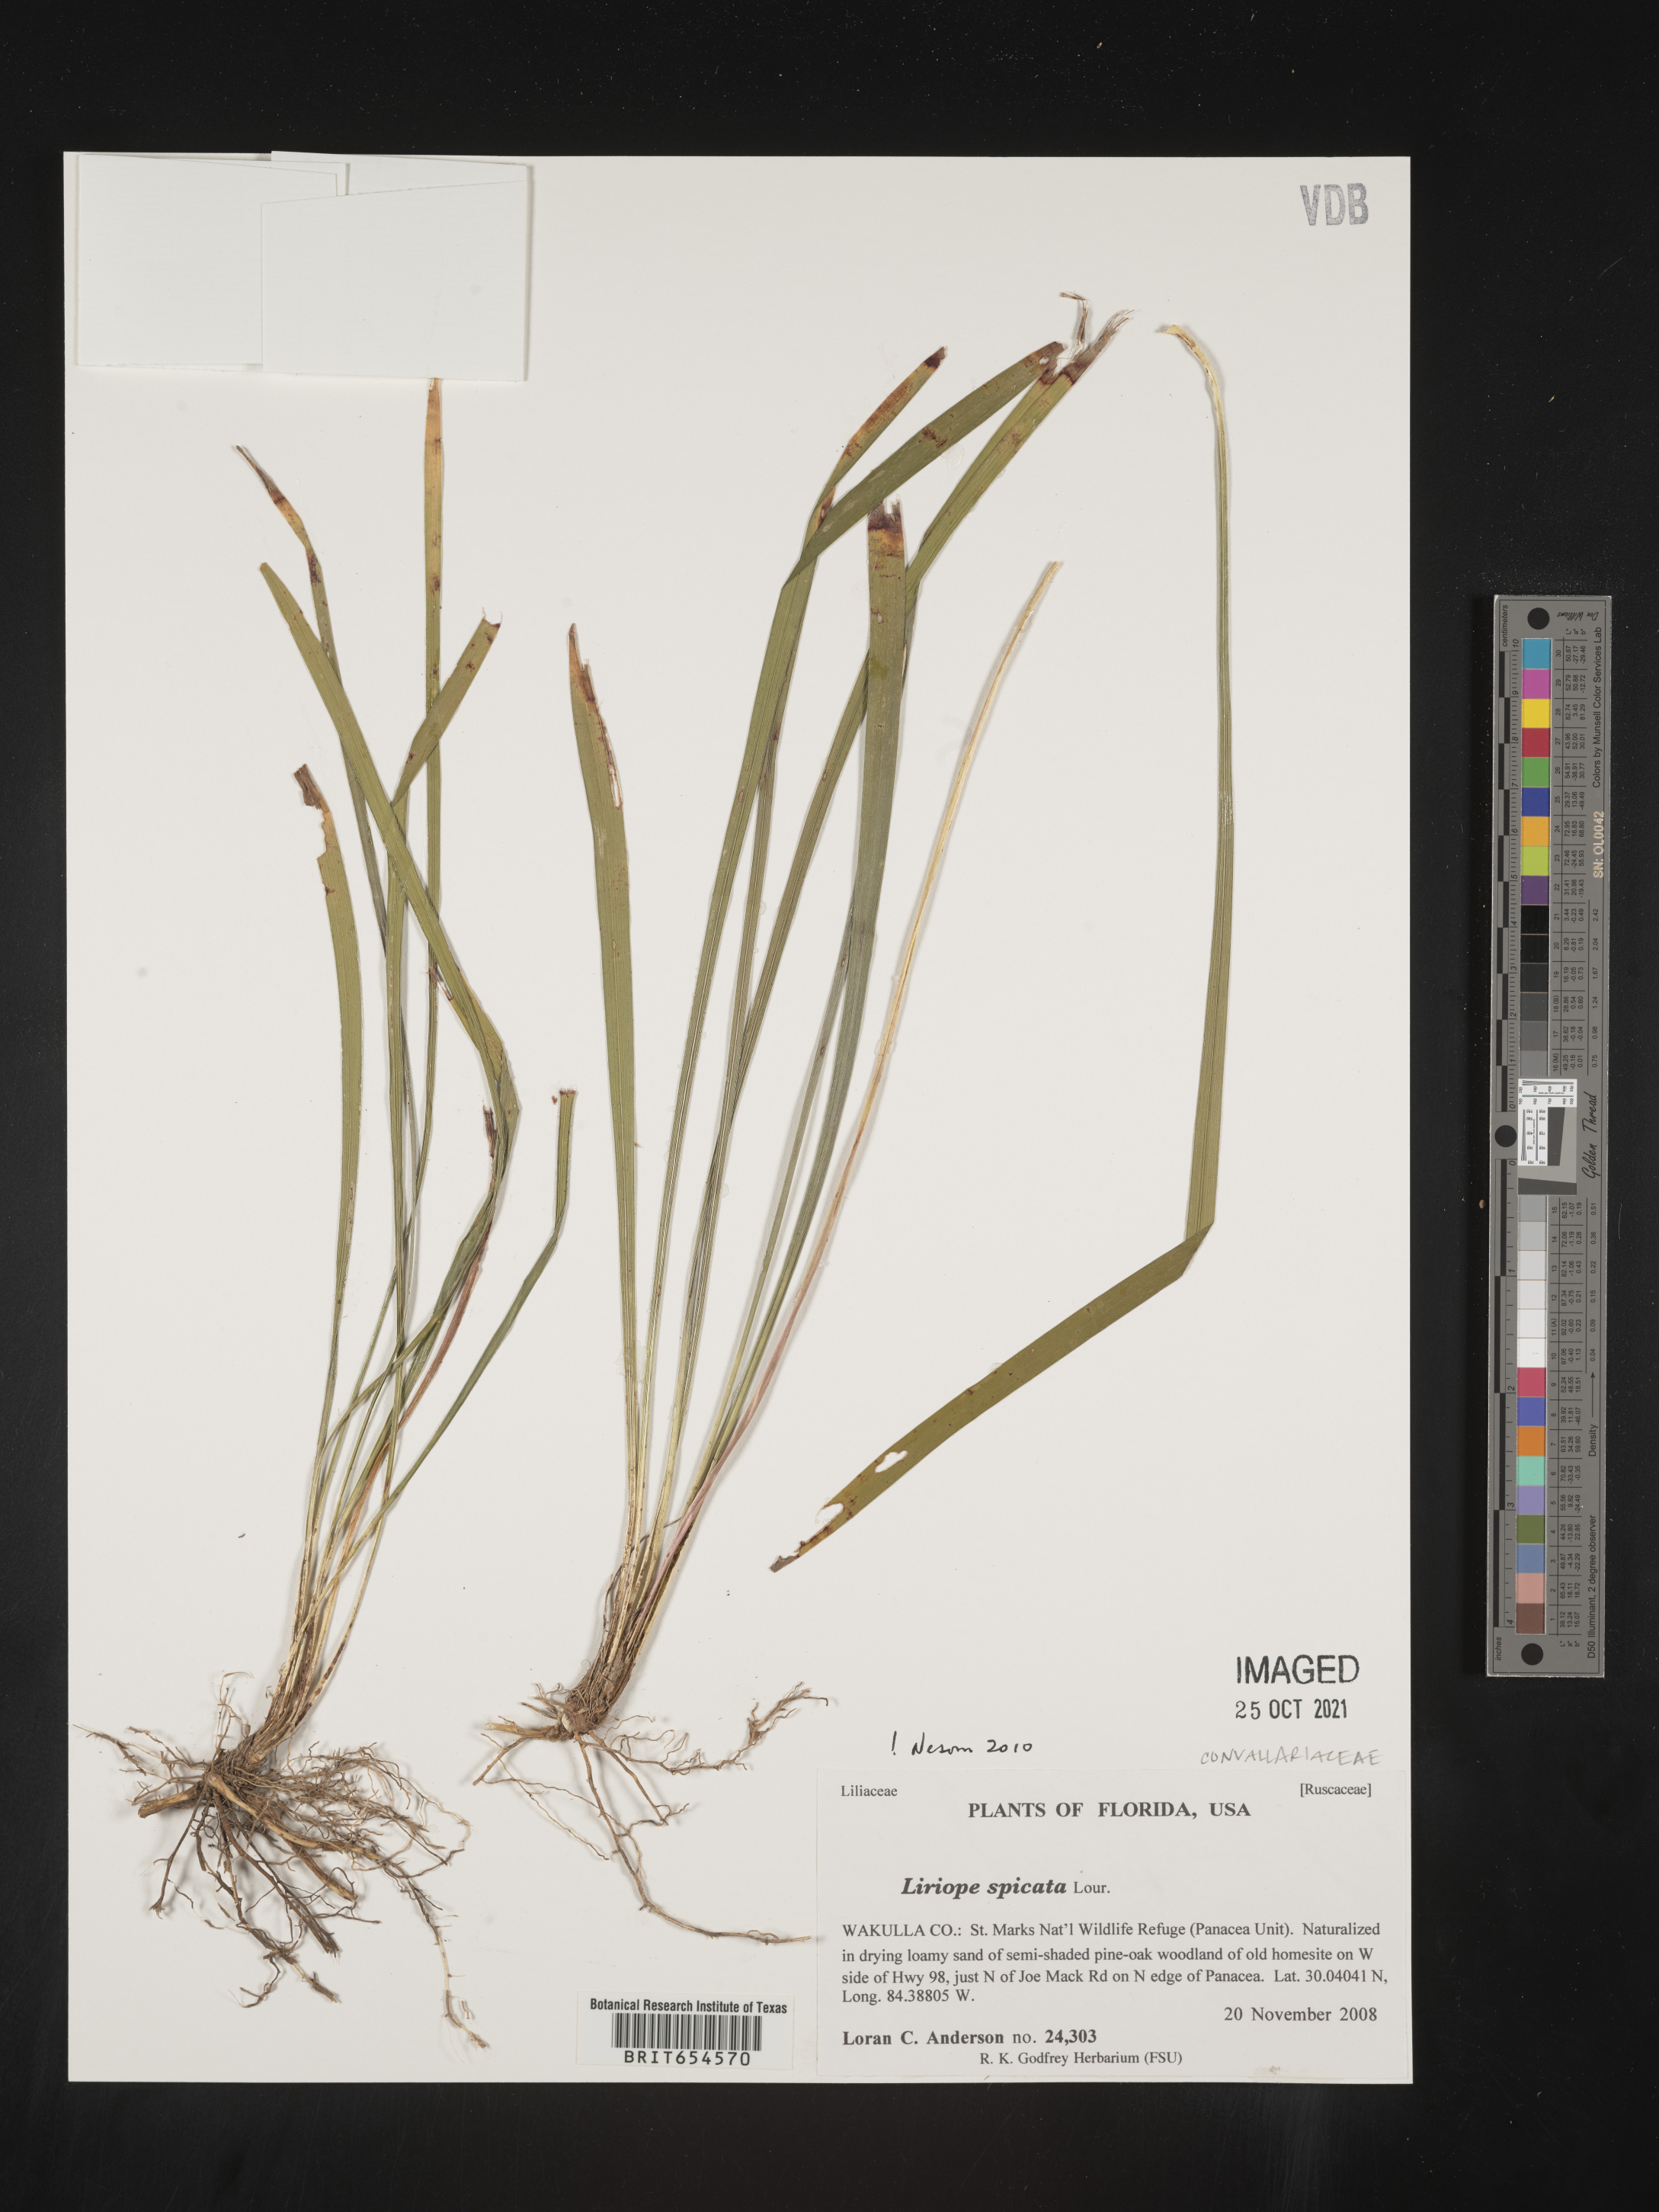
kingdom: Plantae
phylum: Tracheophyta
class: Liliopsida
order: Asparagales
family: Asparagaceae
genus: Liriope
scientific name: Liriope
